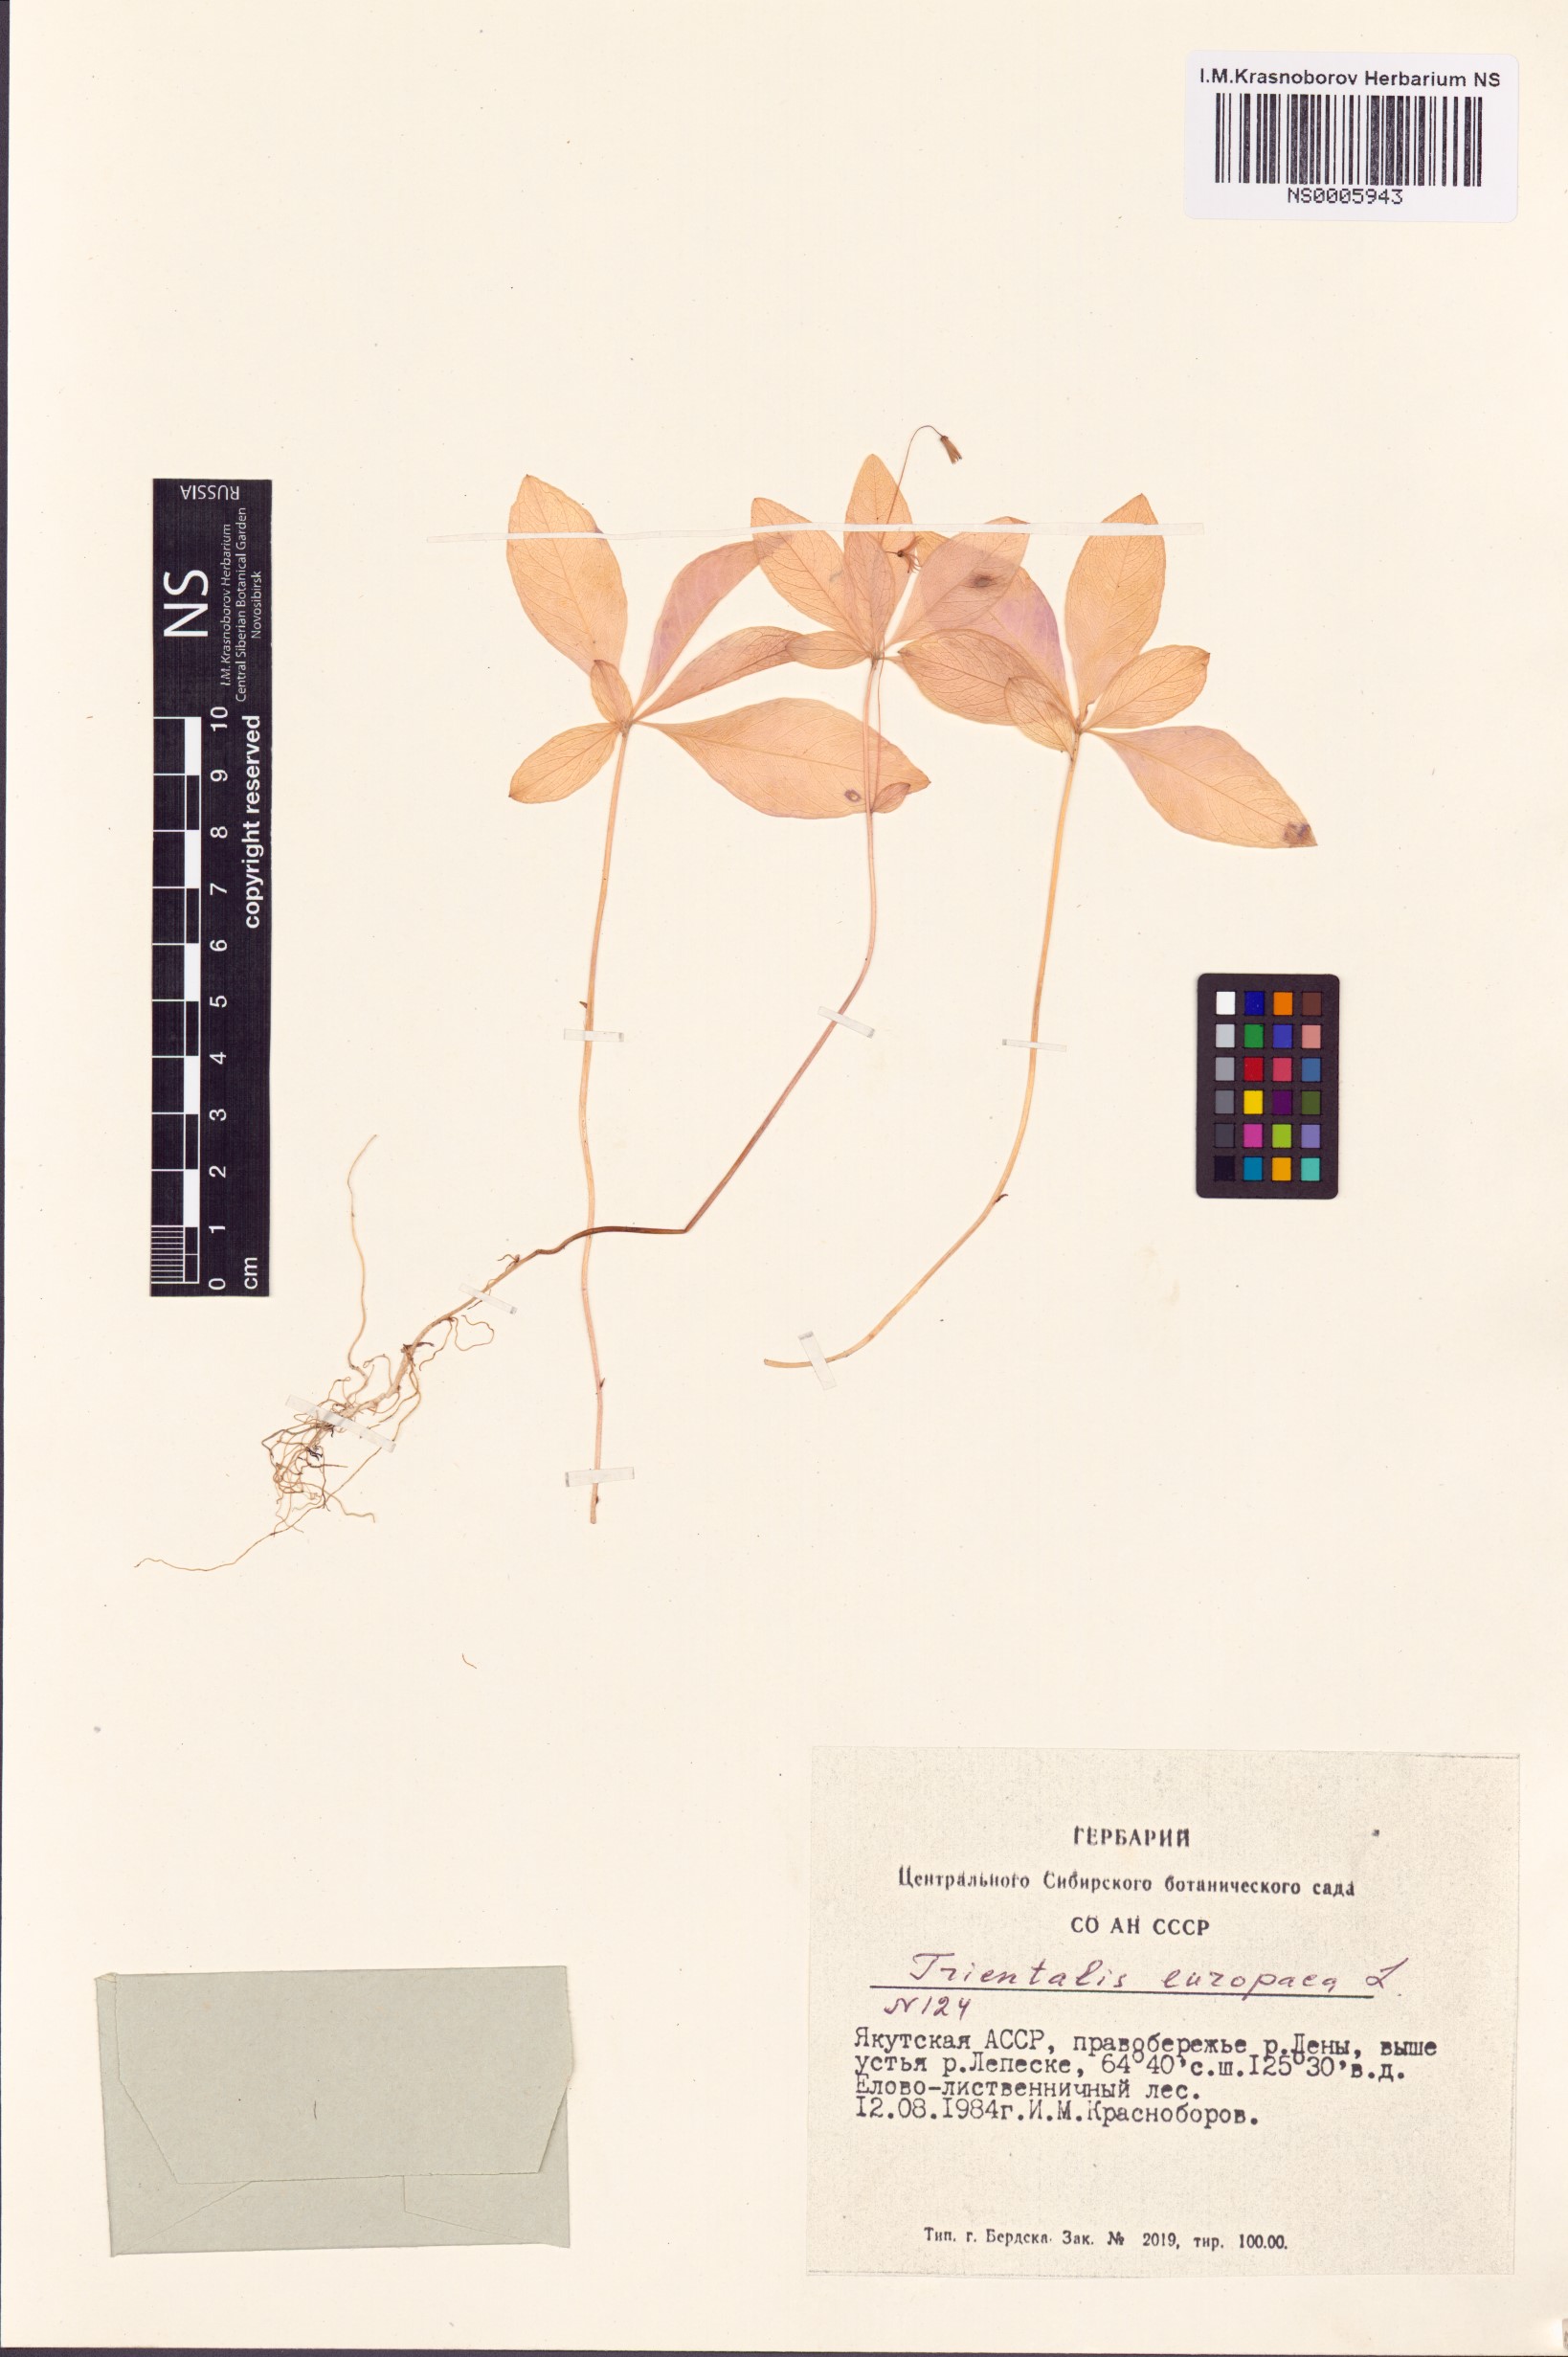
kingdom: Plantae
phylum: Tracheophyta
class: Magnoliopsida
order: Ericales
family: Primulaceae
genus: Lysimachia
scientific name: Lysimachia europaea
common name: Arctic starflower
